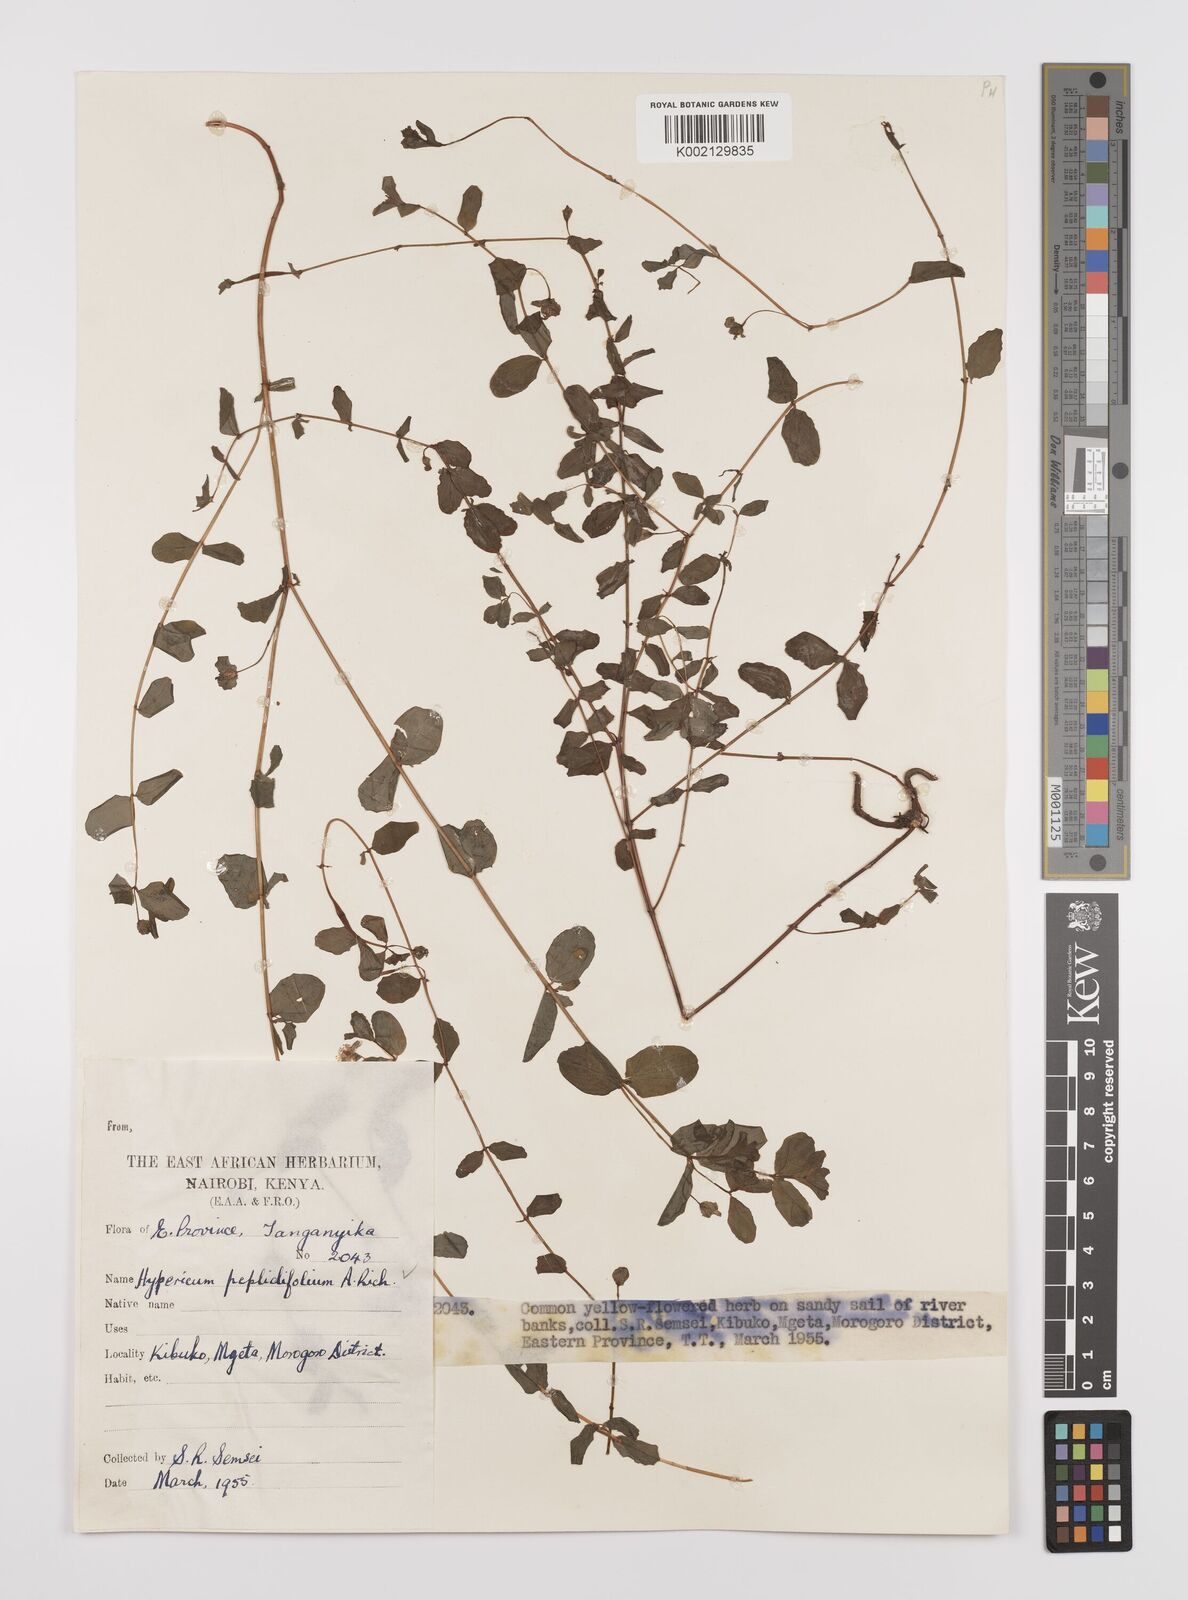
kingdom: Plantae
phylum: Tracheophyta
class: Magnoliopsida
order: Malpighiales
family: Hypericaceae
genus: Hypericum
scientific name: Hypericum peplidifolium
